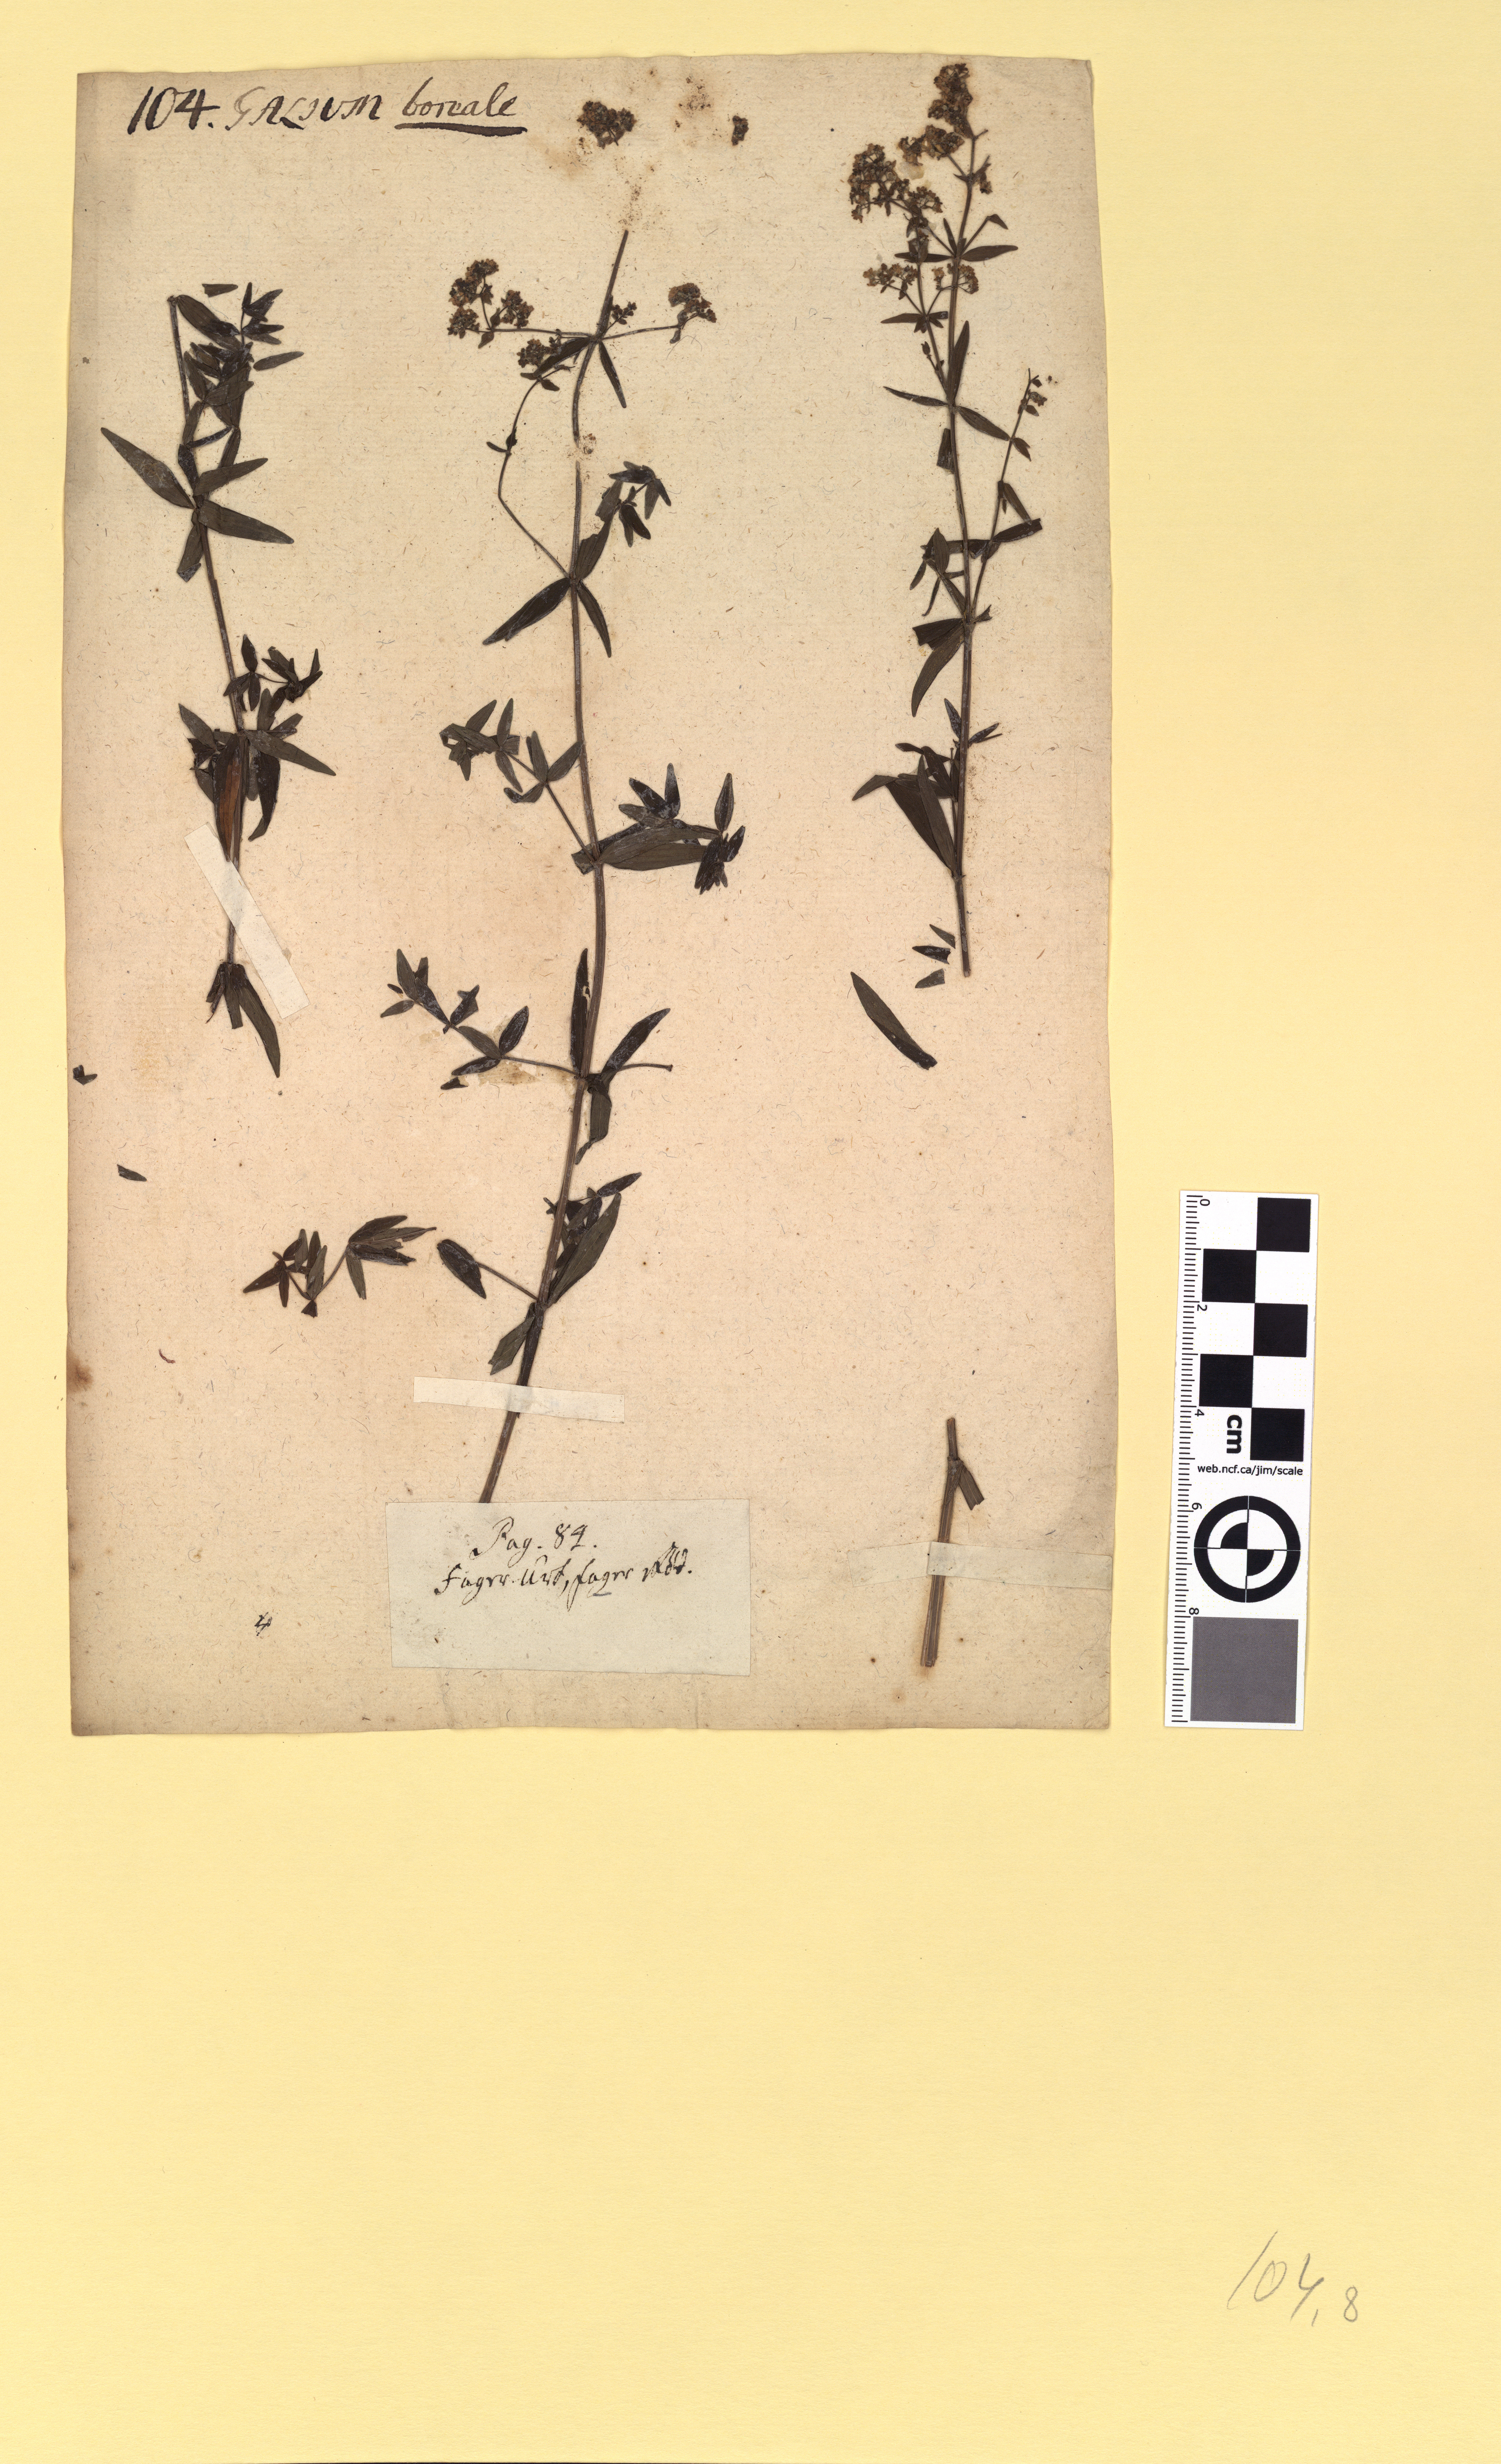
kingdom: Plantae
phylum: Tracheophyta
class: Magnoliopsida
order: Gentianales
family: Rubiaceae
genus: Galium
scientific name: Galium boreale
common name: Northern bedstraw
